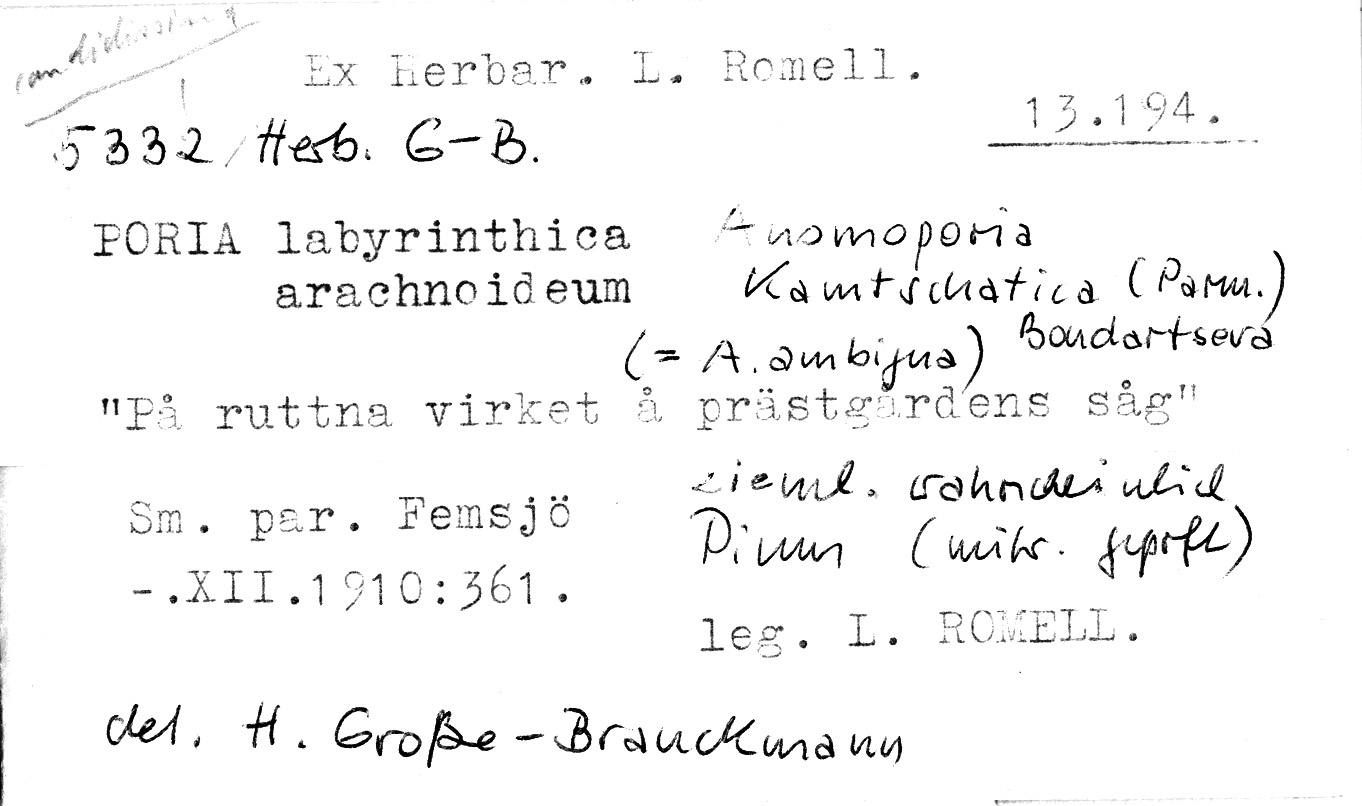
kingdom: Fungi
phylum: Basidiomycota
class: Agaricomycetes
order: Amylocorticiales
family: Amylocorticiaceae
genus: Anomoporia
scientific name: Anomoporia kamtschatica
